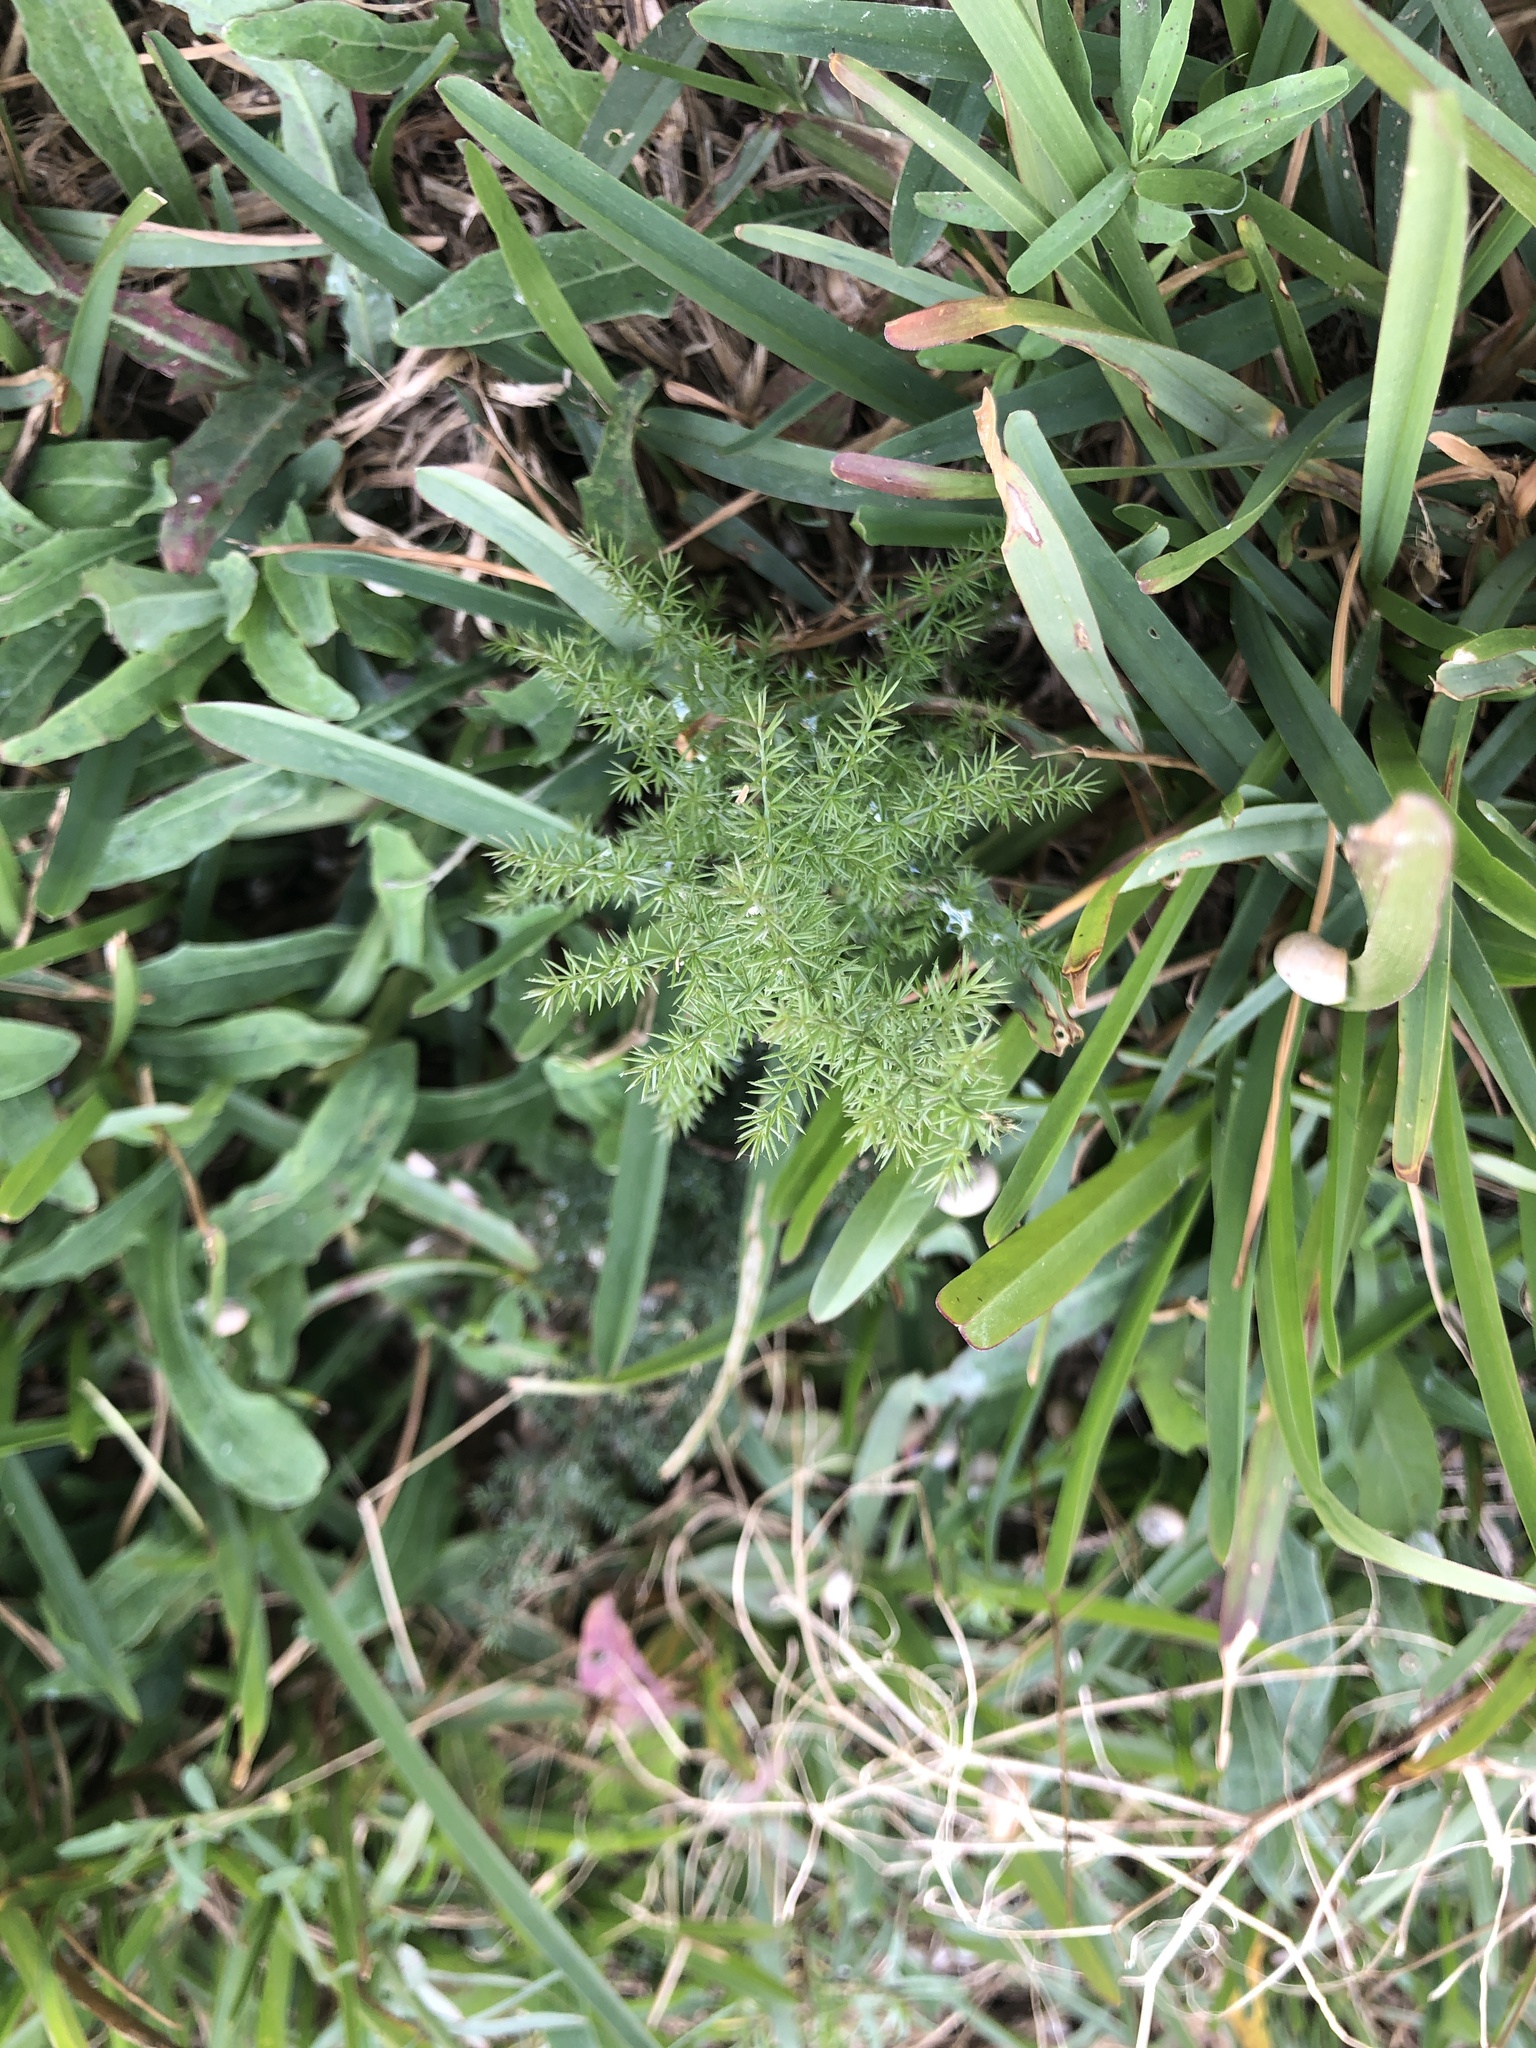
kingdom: Plantae
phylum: Tracheophyta
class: Liliopsida
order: Asparagales
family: Asparagaceae
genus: Asparagus
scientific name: Asparagus acutifolius
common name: Wild asparagus
